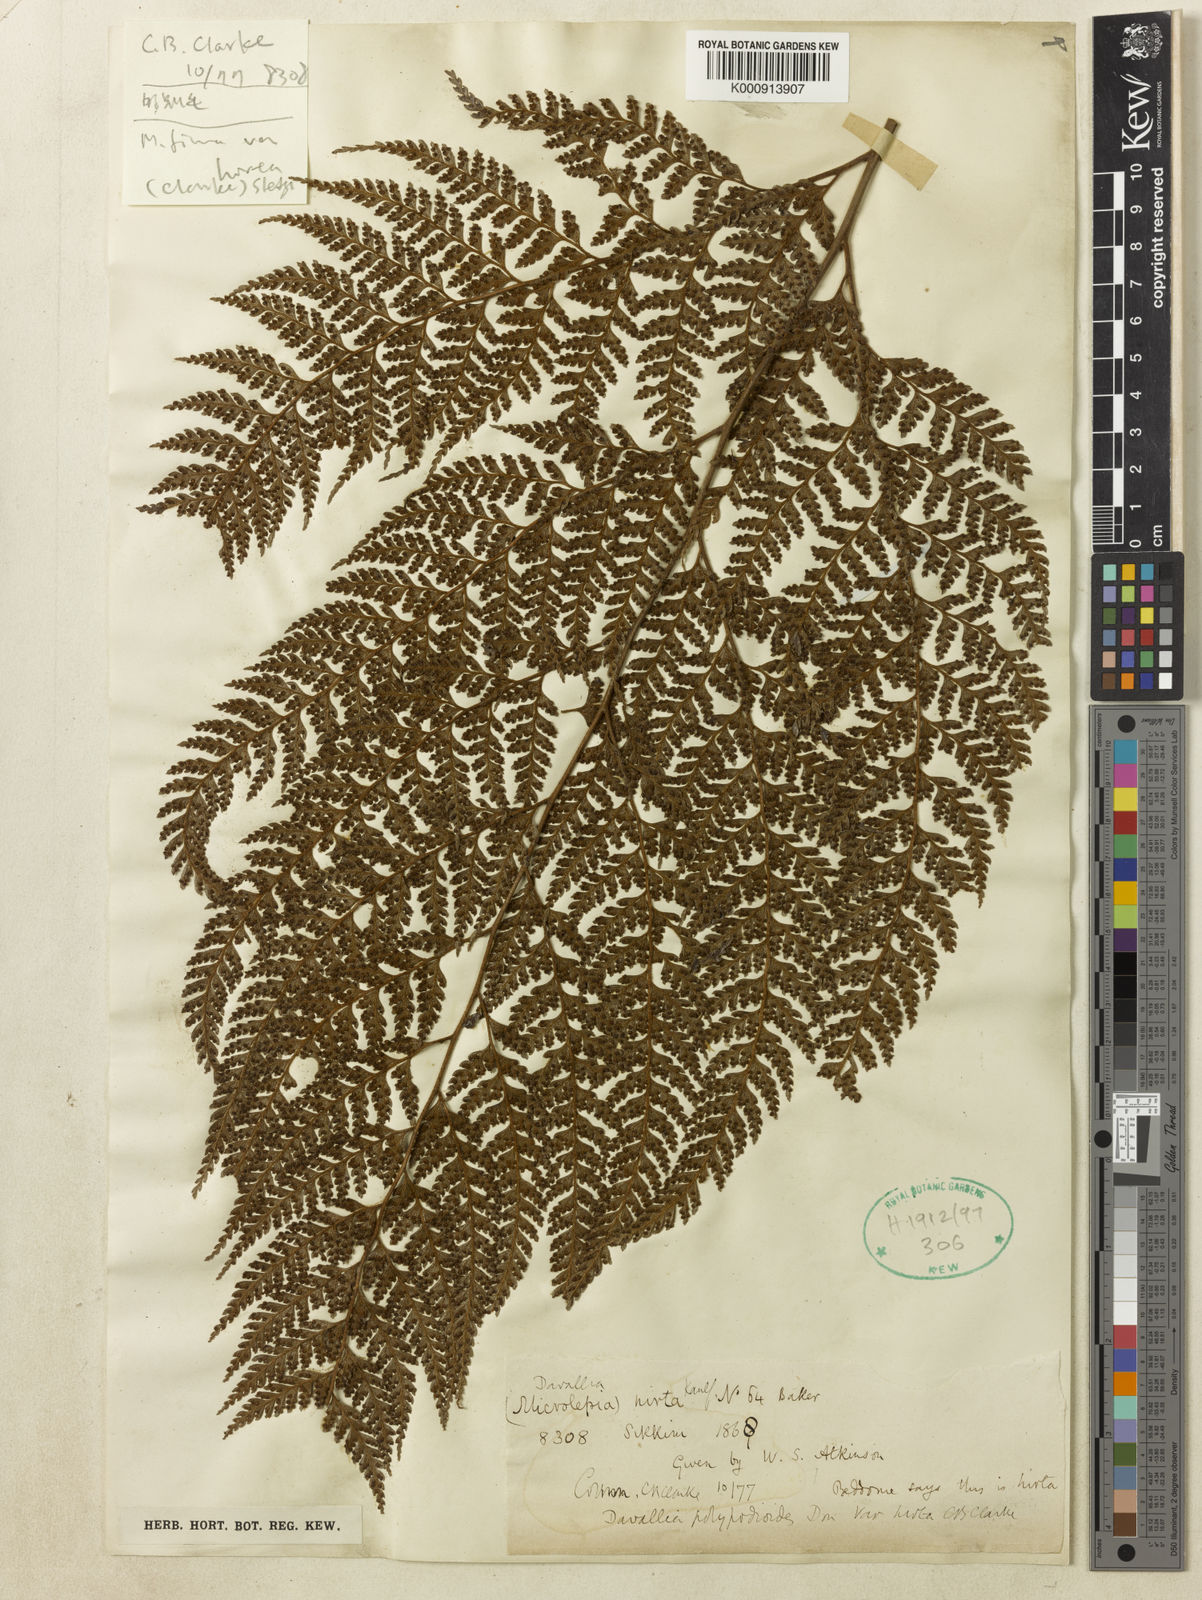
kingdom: Plantae
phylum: Tracheophyta
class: Polypodiopsida
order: Polypodiales
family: Dennstaedtiaceae
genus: Microlepia
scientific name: Microlepia firma
